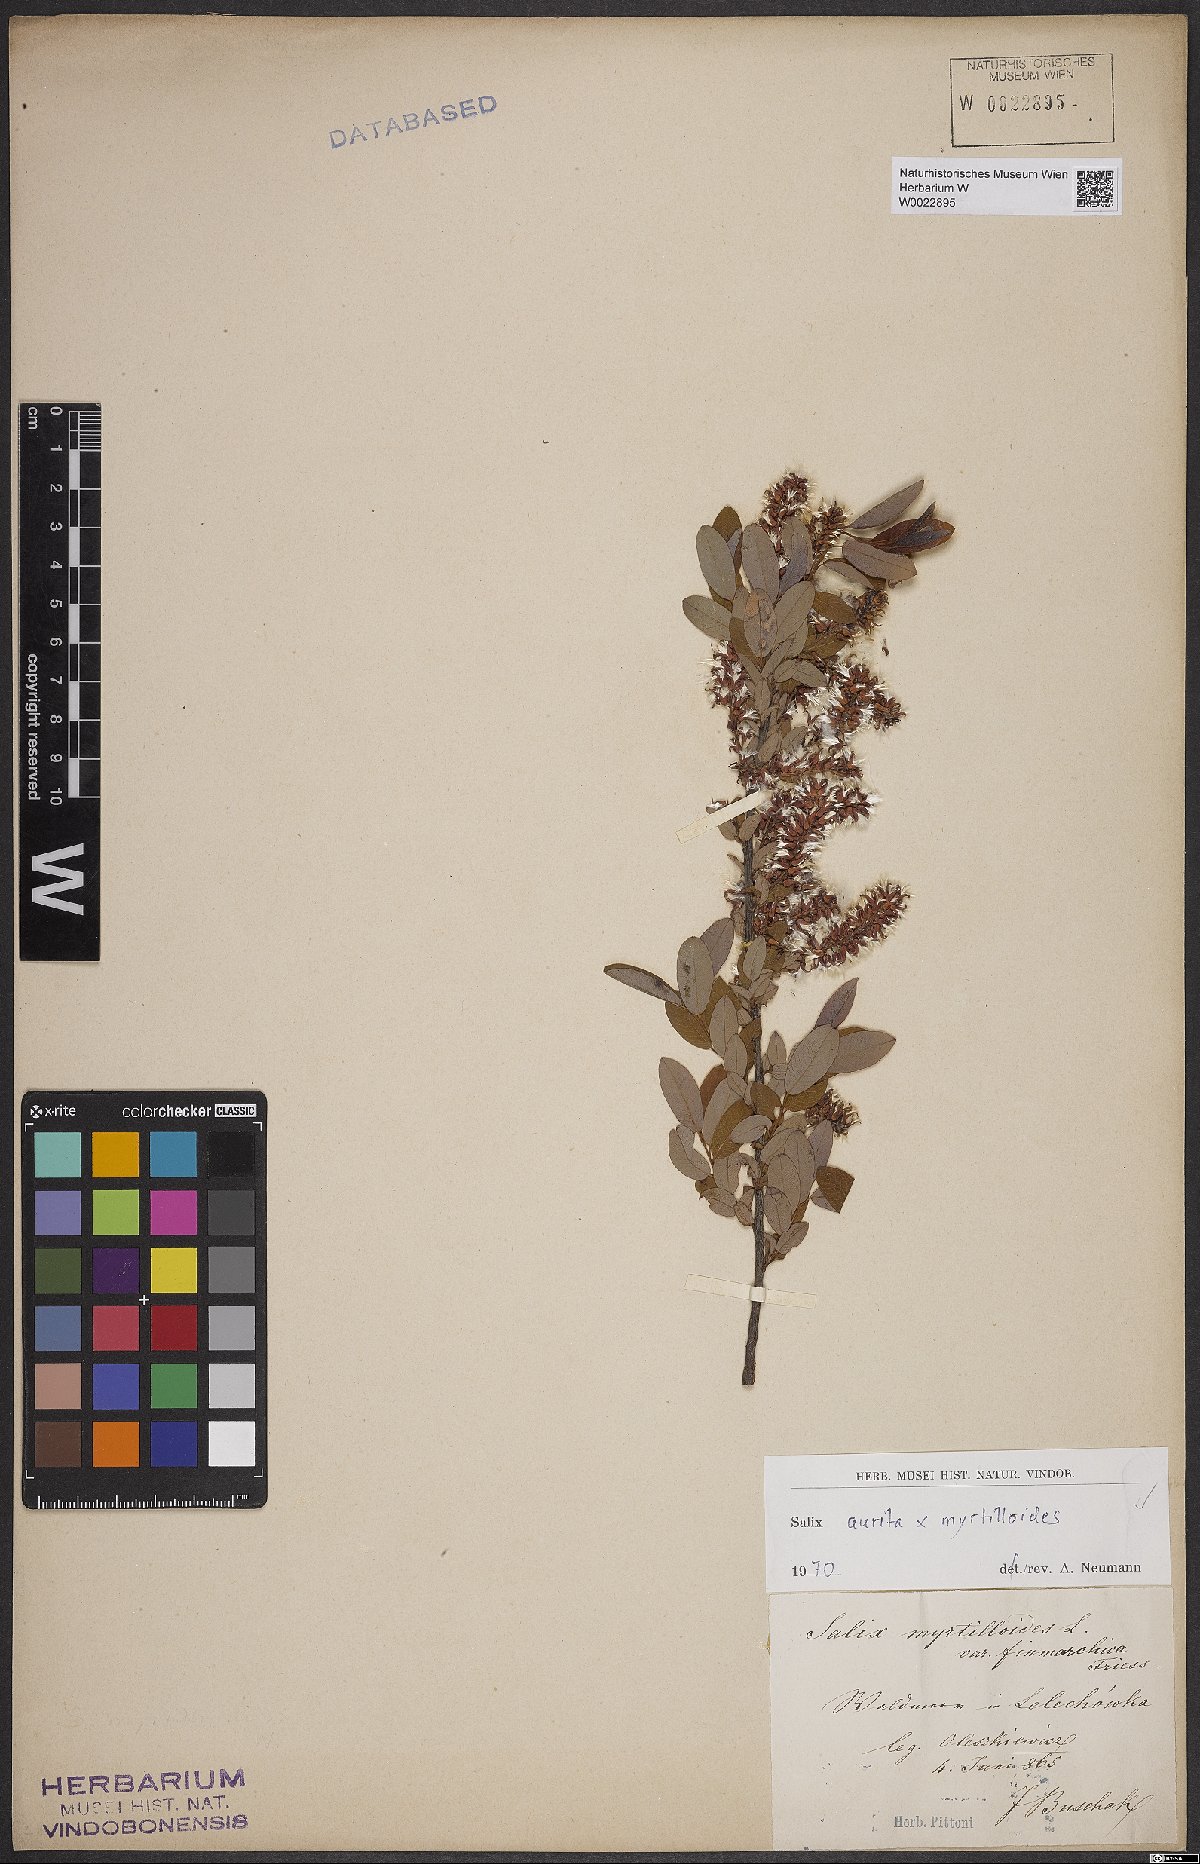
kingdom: Plantae
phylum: Tracheophyta
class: Magnoliopsida
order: Malpighiales
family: Salicaceae
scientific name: Salicaceae
